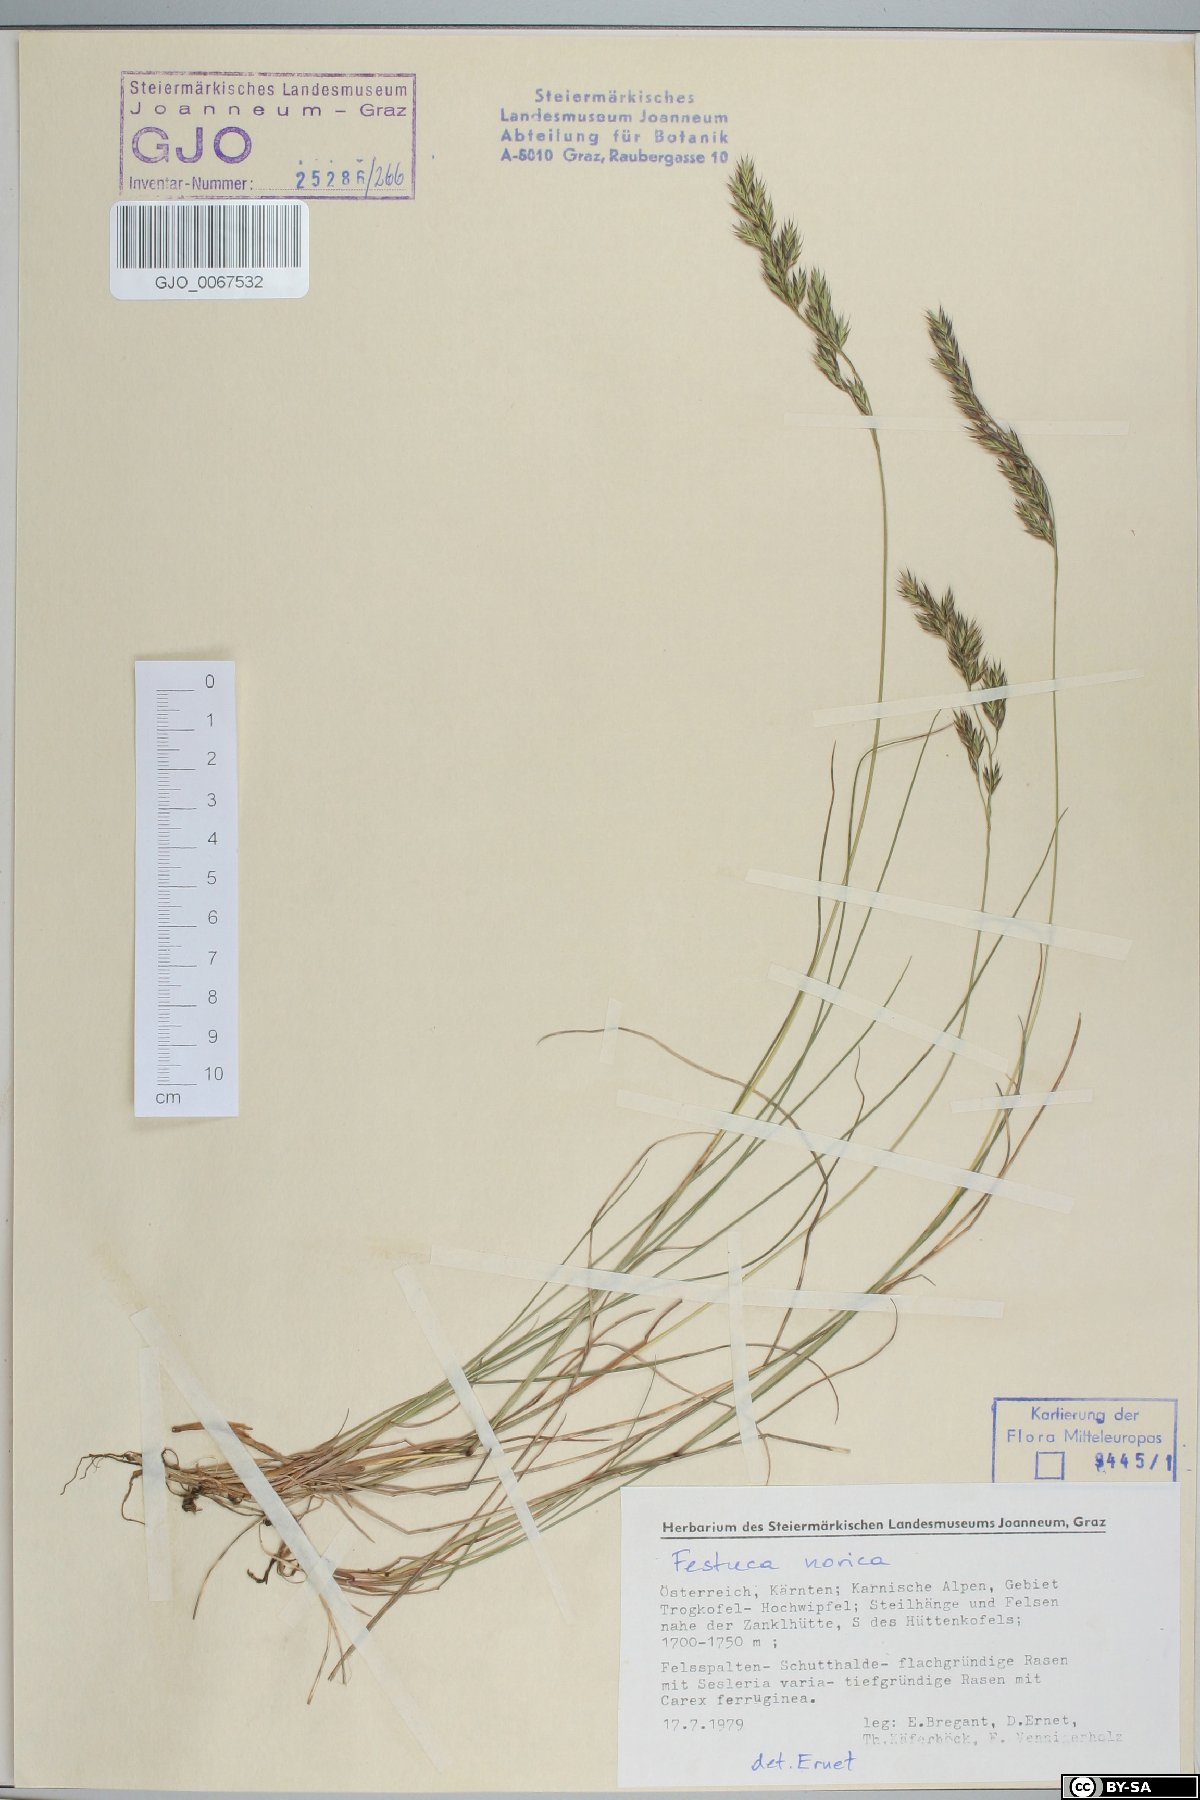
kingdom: Plantae
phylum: Tracheophyta
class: Liliopsida
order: Poales
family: Poaceae
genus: Festuca
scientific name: Festuca norica
